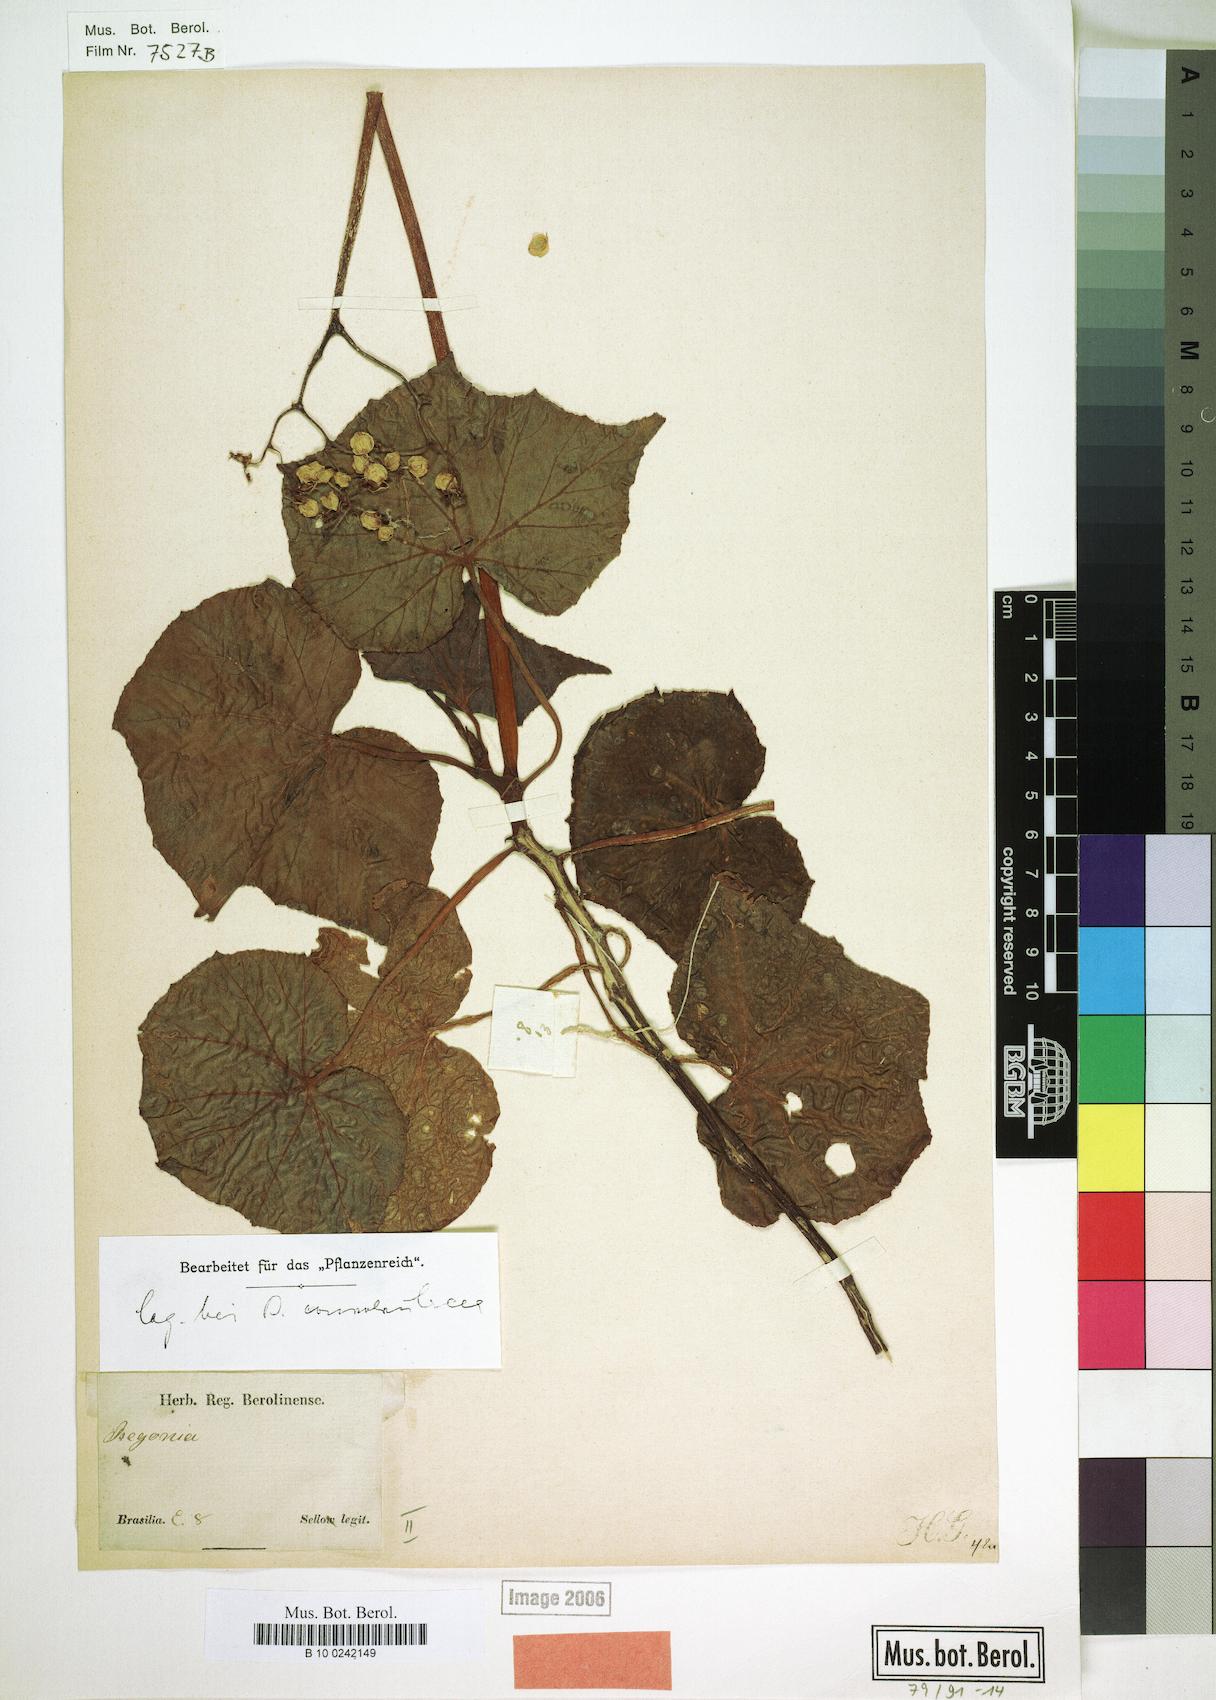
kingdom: Plantae
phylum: Tracheophyta
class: Magnoliopsida
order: Cucurbitales
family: Begoniaceae
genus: Begonia
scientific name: Begonia convolvulacea
